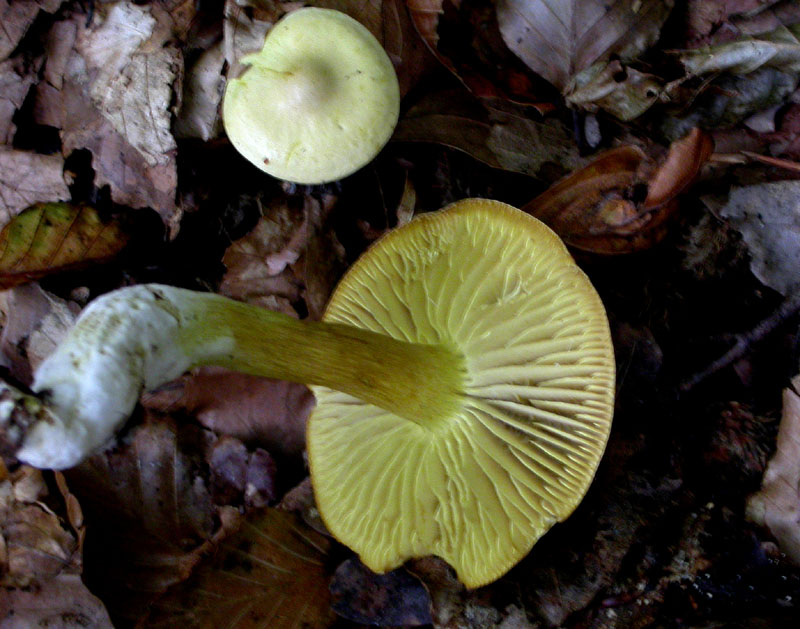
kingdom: Fungi
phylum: Basidiomycota
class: Agaricomycetes
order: Agaricales
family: Tricholomataceae
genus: Tricholoma
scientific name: Tricholoma sulphureum
